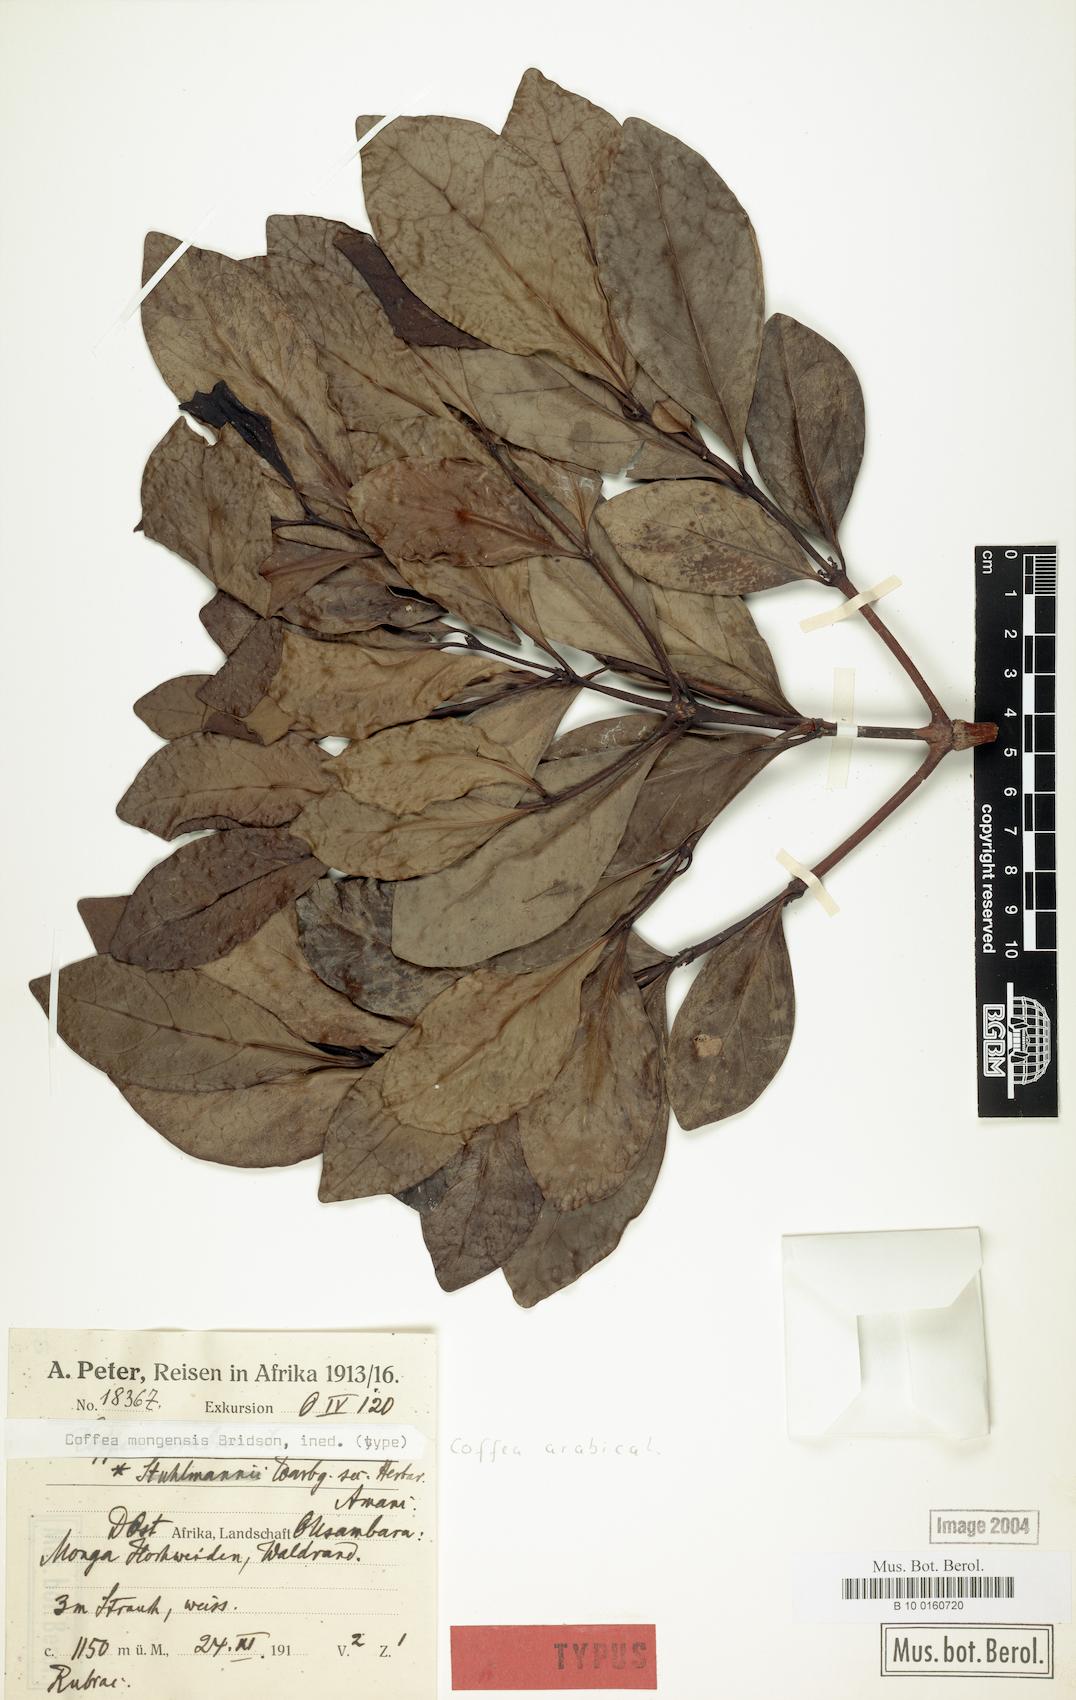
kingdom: Plantae
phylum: Tracheophyta
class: Magnoliopsida
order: Gentianales
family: Rubiaceae
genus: Coffea
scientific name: Coffea mongensis
